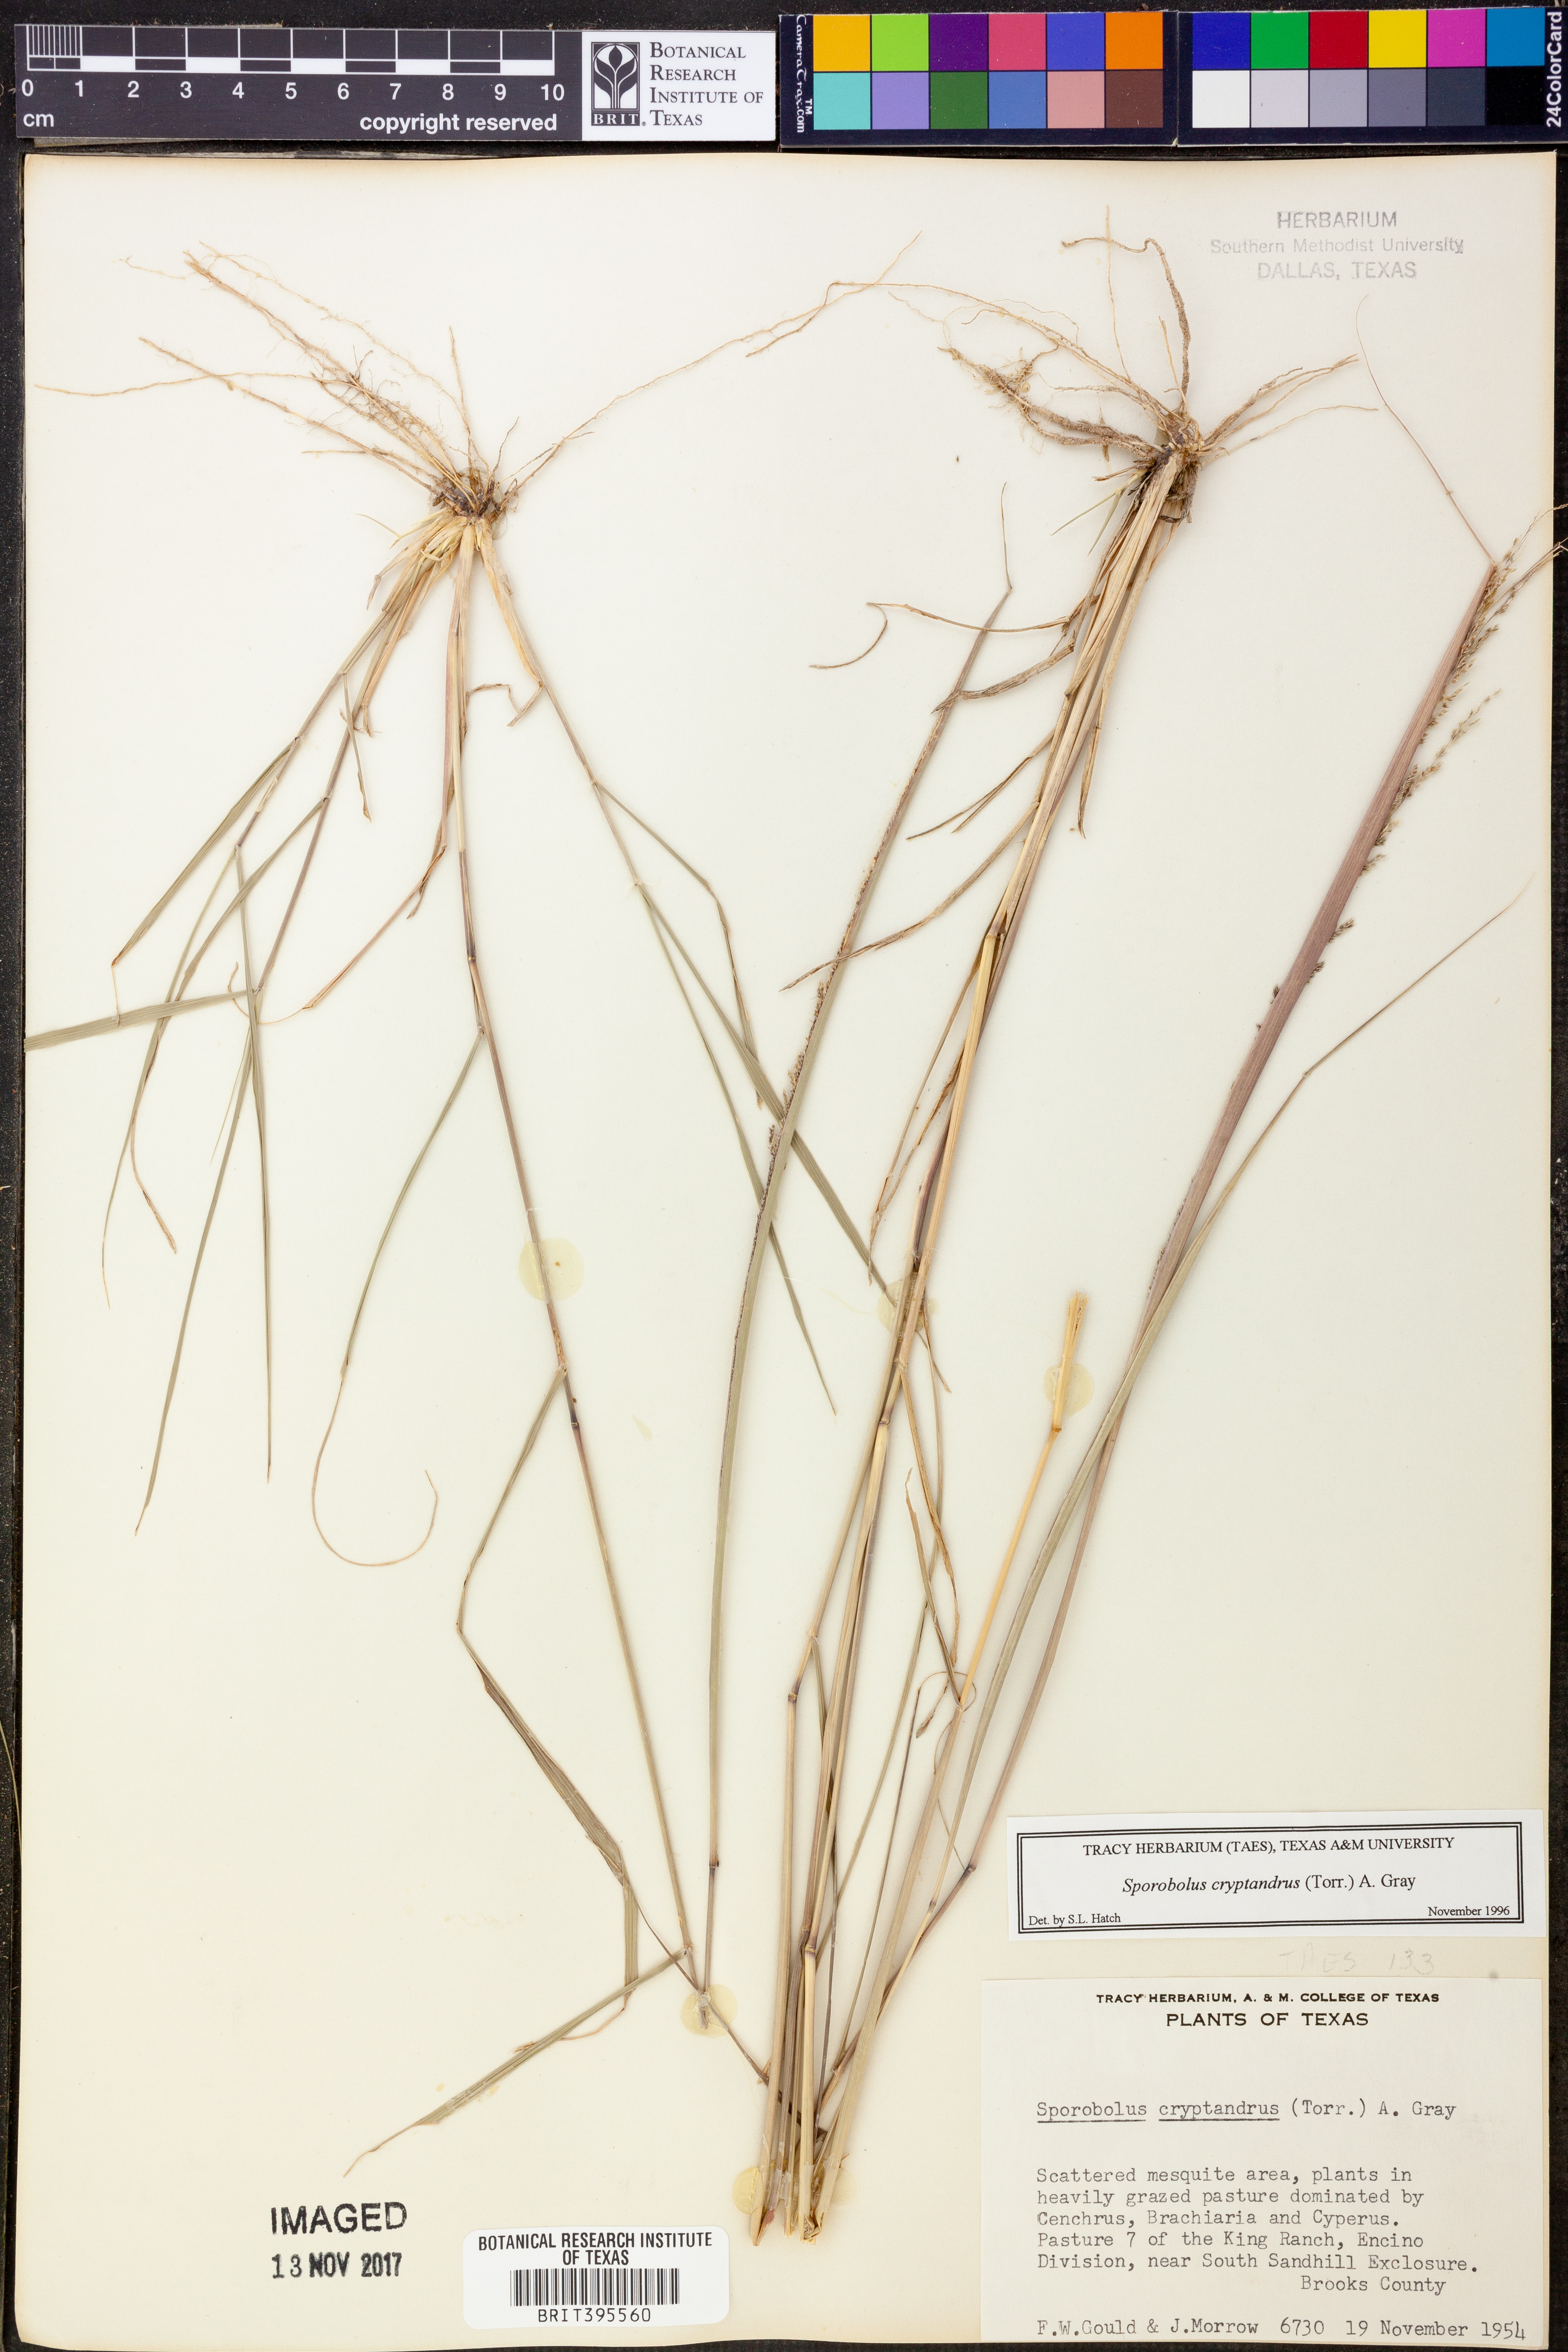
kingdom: Plantae
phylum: Tracheophyta
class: Liliopsida
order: Poales
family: Poaceae
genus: Sporobolus
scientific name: Sporobolus cryptandrus
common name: Sand dropseed
